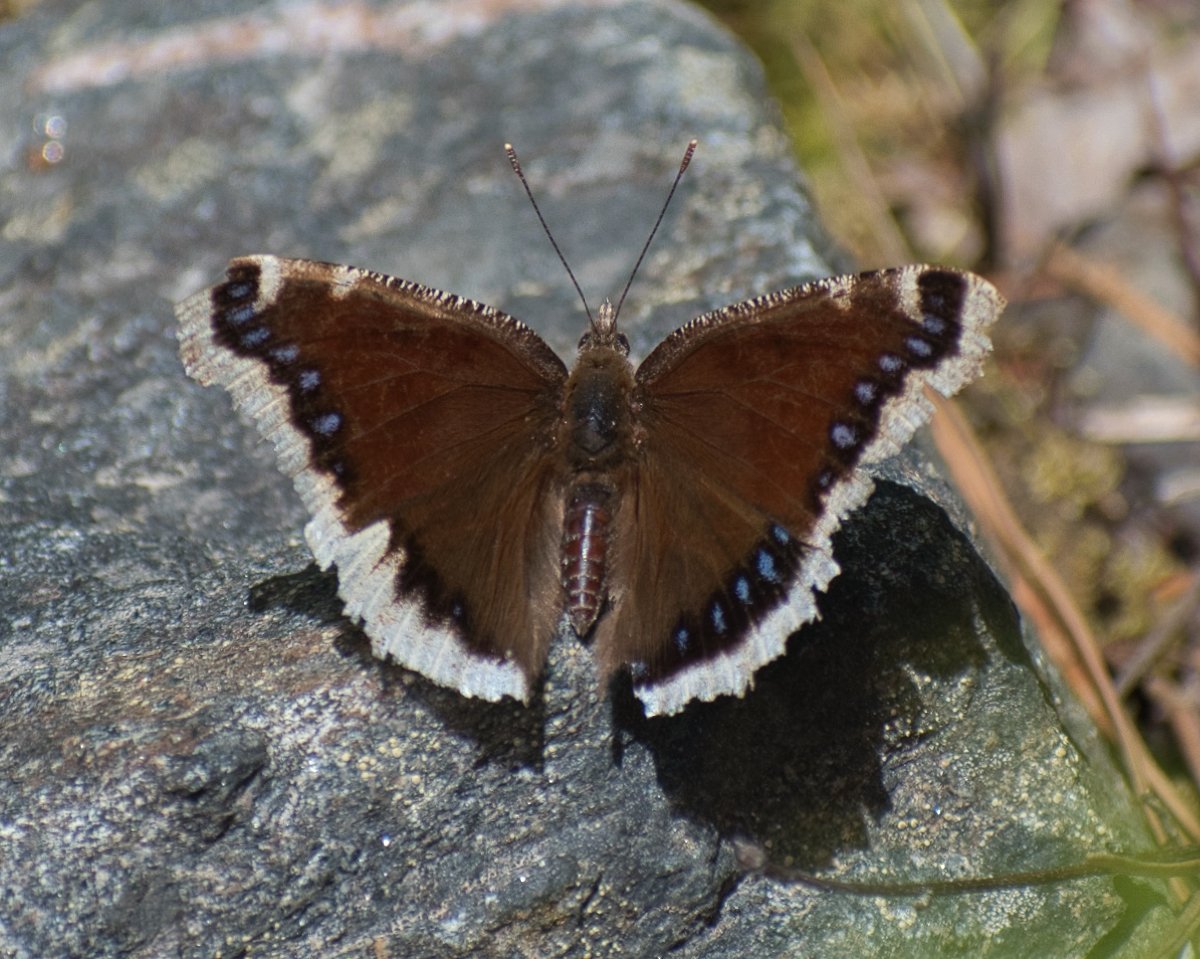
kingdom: Animalia
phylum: Arthropoda
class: Insecta
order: Lepidoptera
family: Nymphalidae
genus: Nymphalis
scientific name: Nymphalis antiopa
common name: Mourning Cloak
